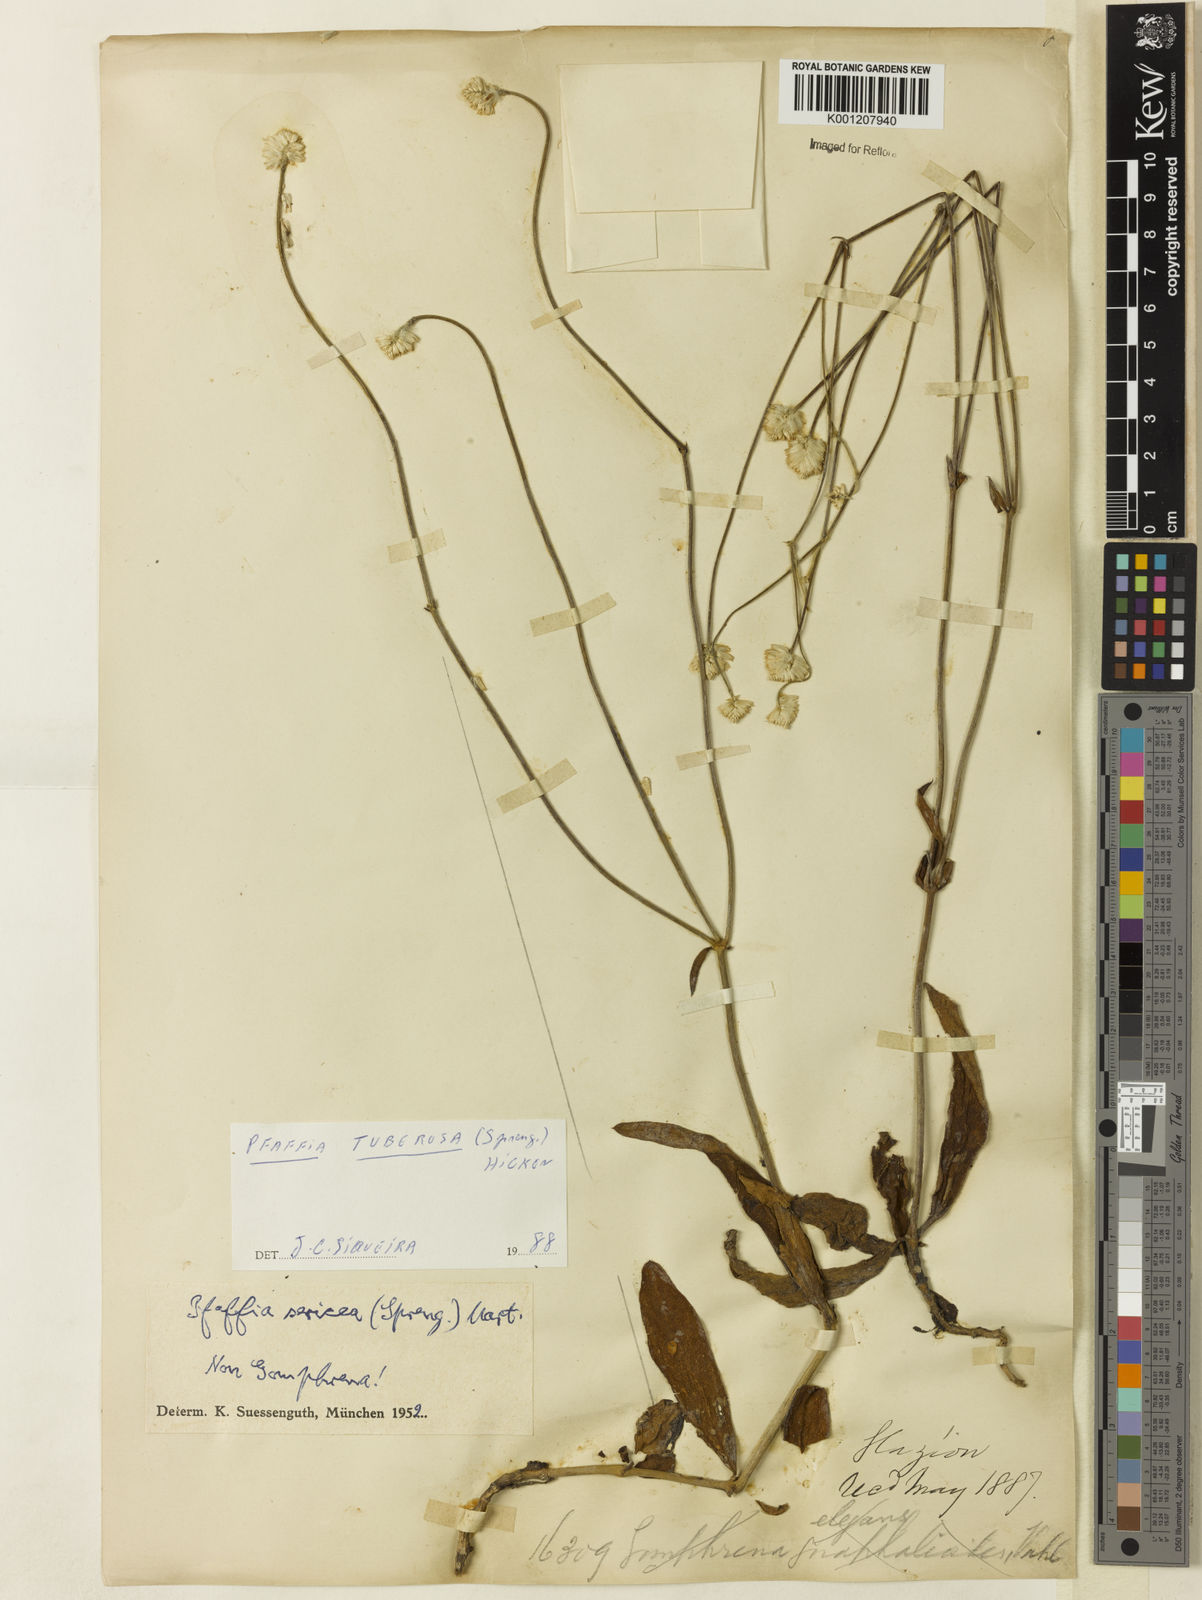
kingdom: Plantae
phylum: Tracheophyta
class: Magnoliopsida
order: Caryophyllales
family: Amaranthaceae
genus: Pfaffia
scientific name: Pfaffia tuberosa
